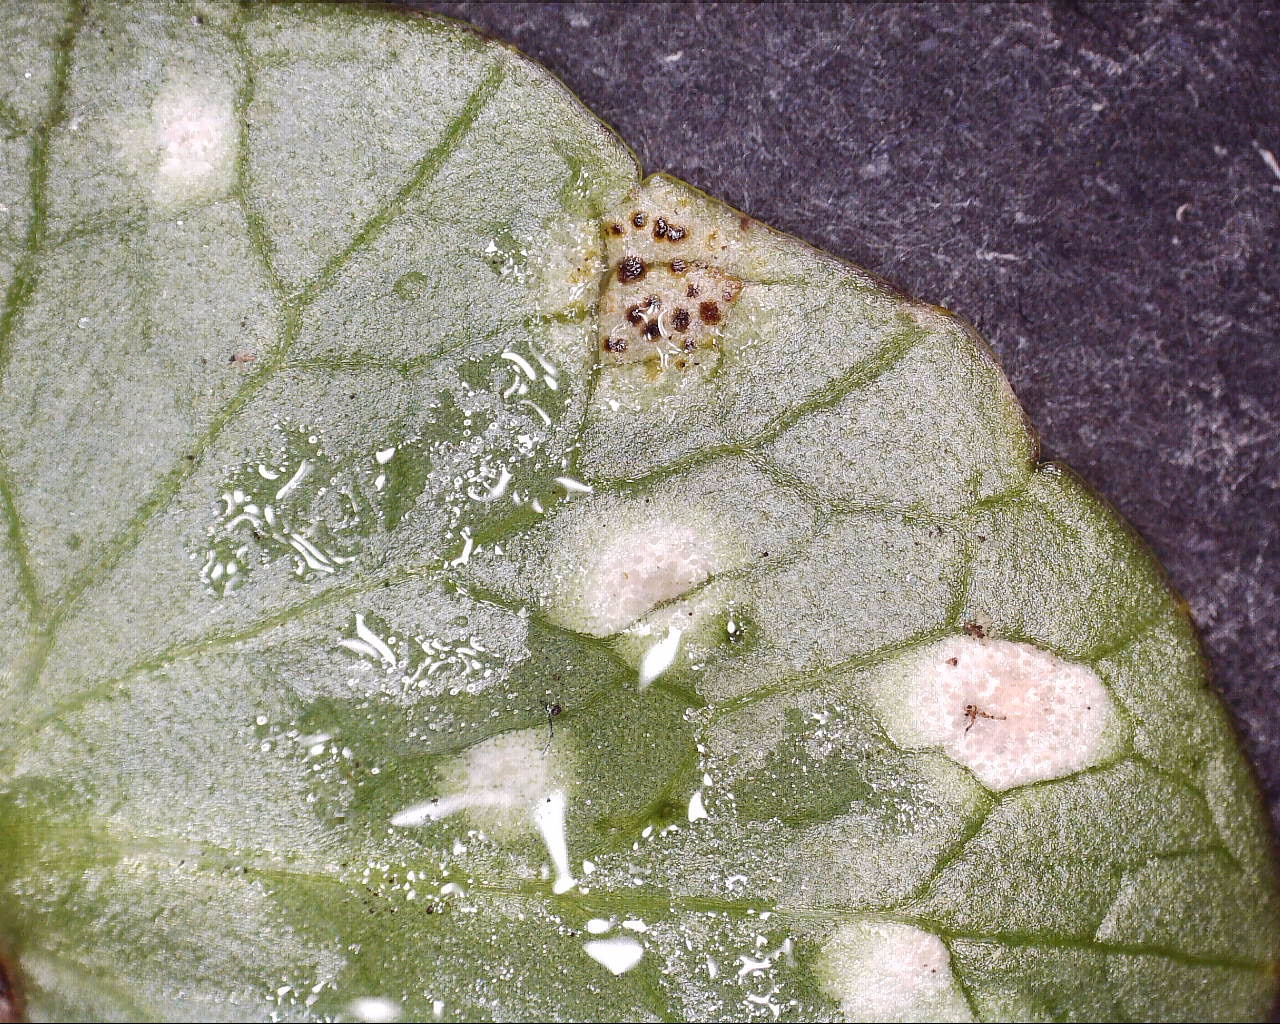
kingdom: Fungi
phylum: Basidiomycota
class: Exobasidiomycetes
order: Entylomatales
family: Entylomataceae
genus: Entyloma
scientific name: Entyloma ficariae
